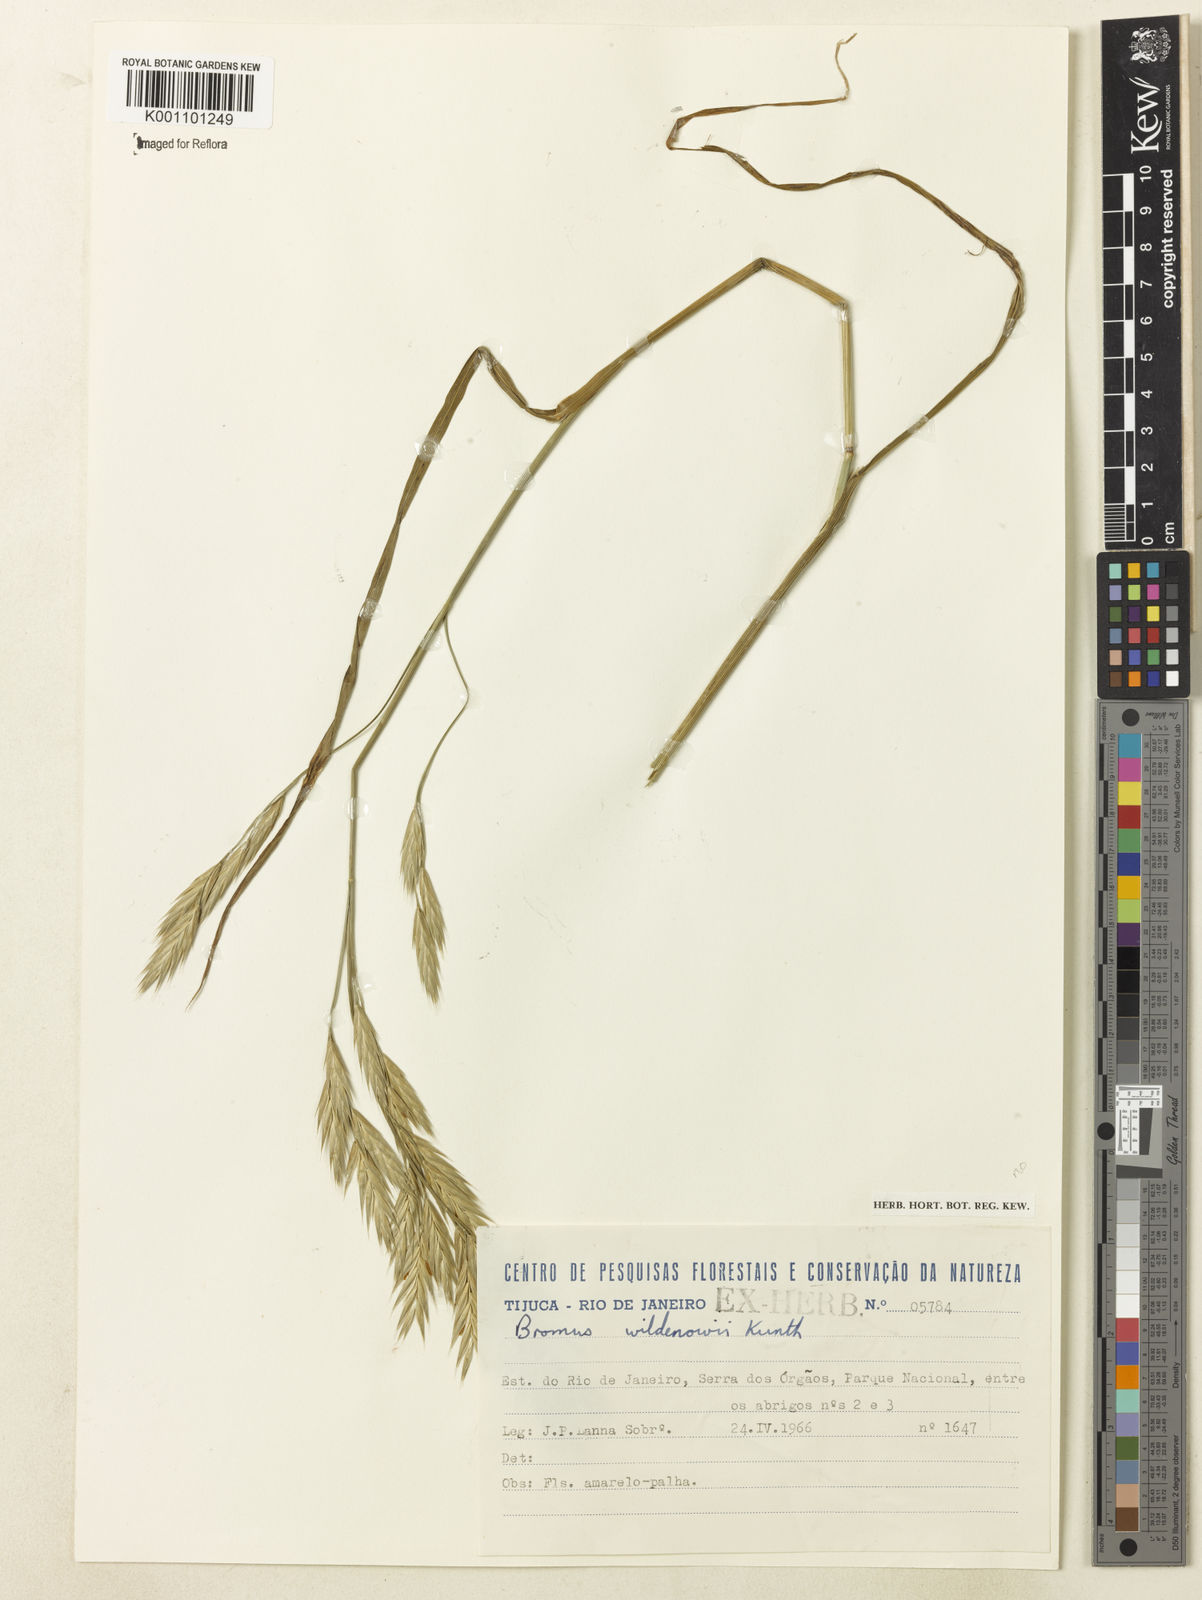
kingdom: Plantae
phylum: Tracheophyta
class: Liliopsida
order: Poales
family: Poaceae
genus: Bromus
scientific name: Bromus catharticus
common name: Rescuegrass
